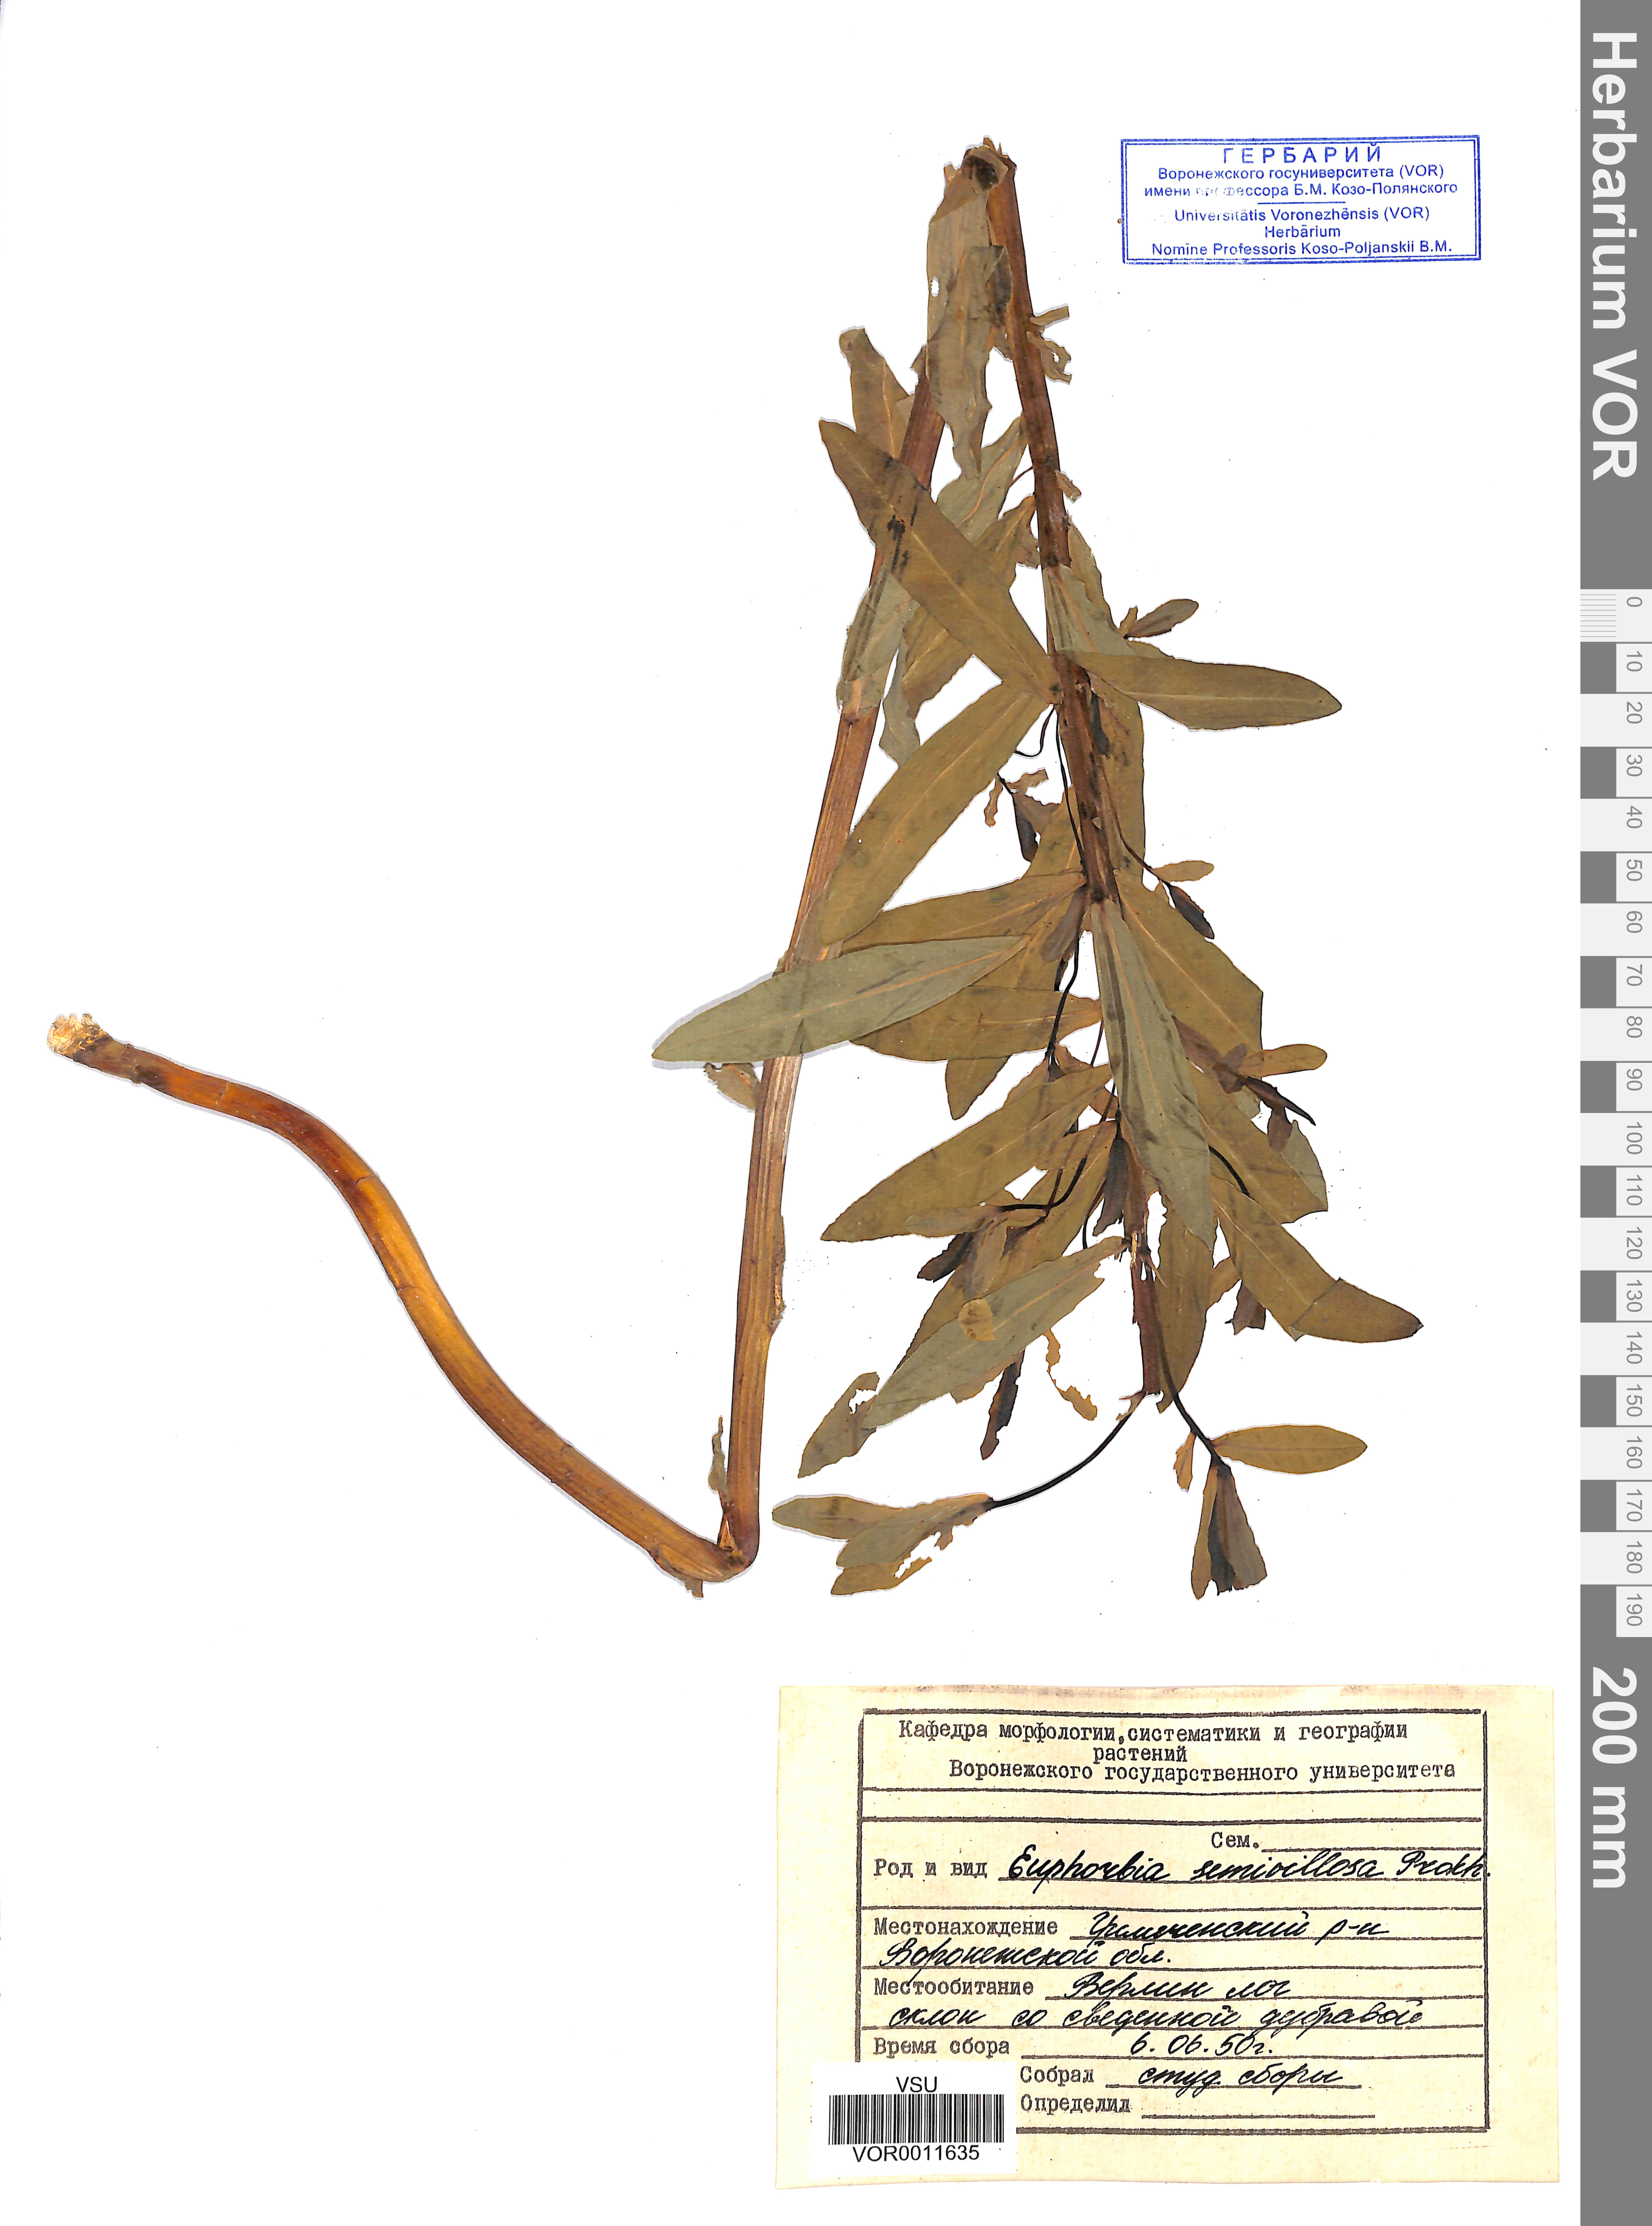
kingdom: Plantae
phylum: Tracheophyta
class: Magnoliopsida
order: Malpighiales
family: Euphorbiaceae
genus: Euphorbia
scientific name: Euphorbia semivillosa
